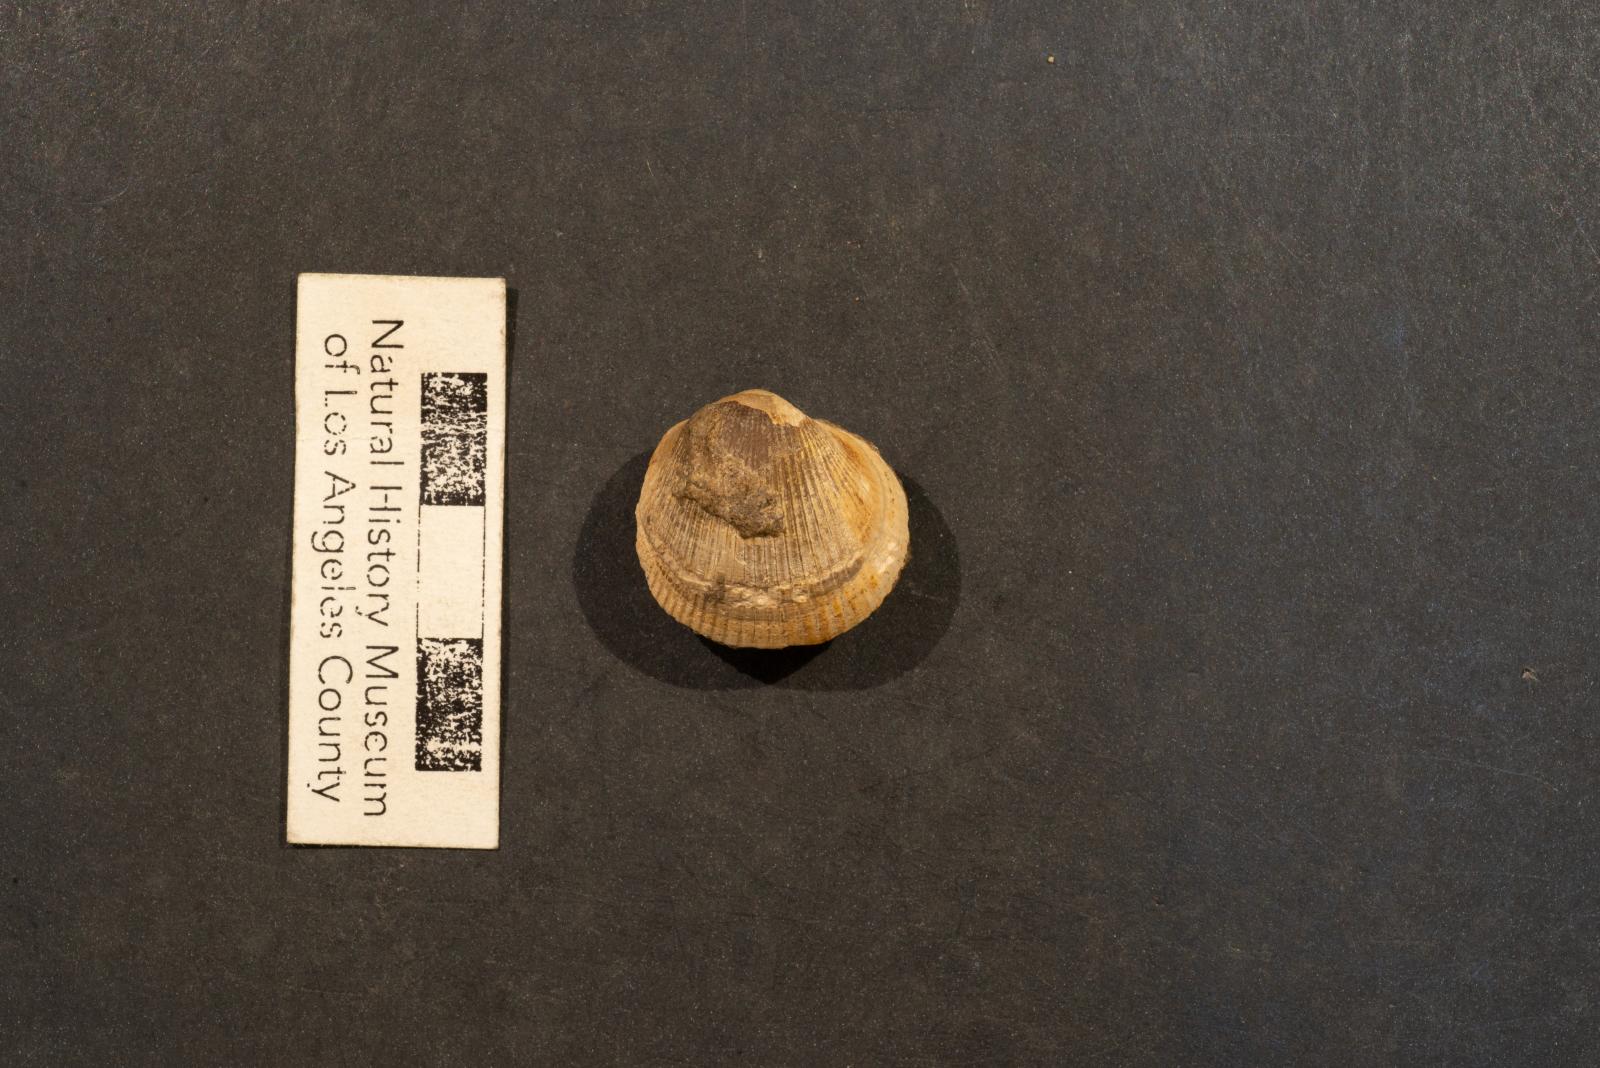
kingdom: Animalia
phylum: Mollusca
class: Bivalvia
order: Arcida
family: Glycymerididae
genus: Glycymerita
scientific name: Glycymerita Axinaea veatchii
